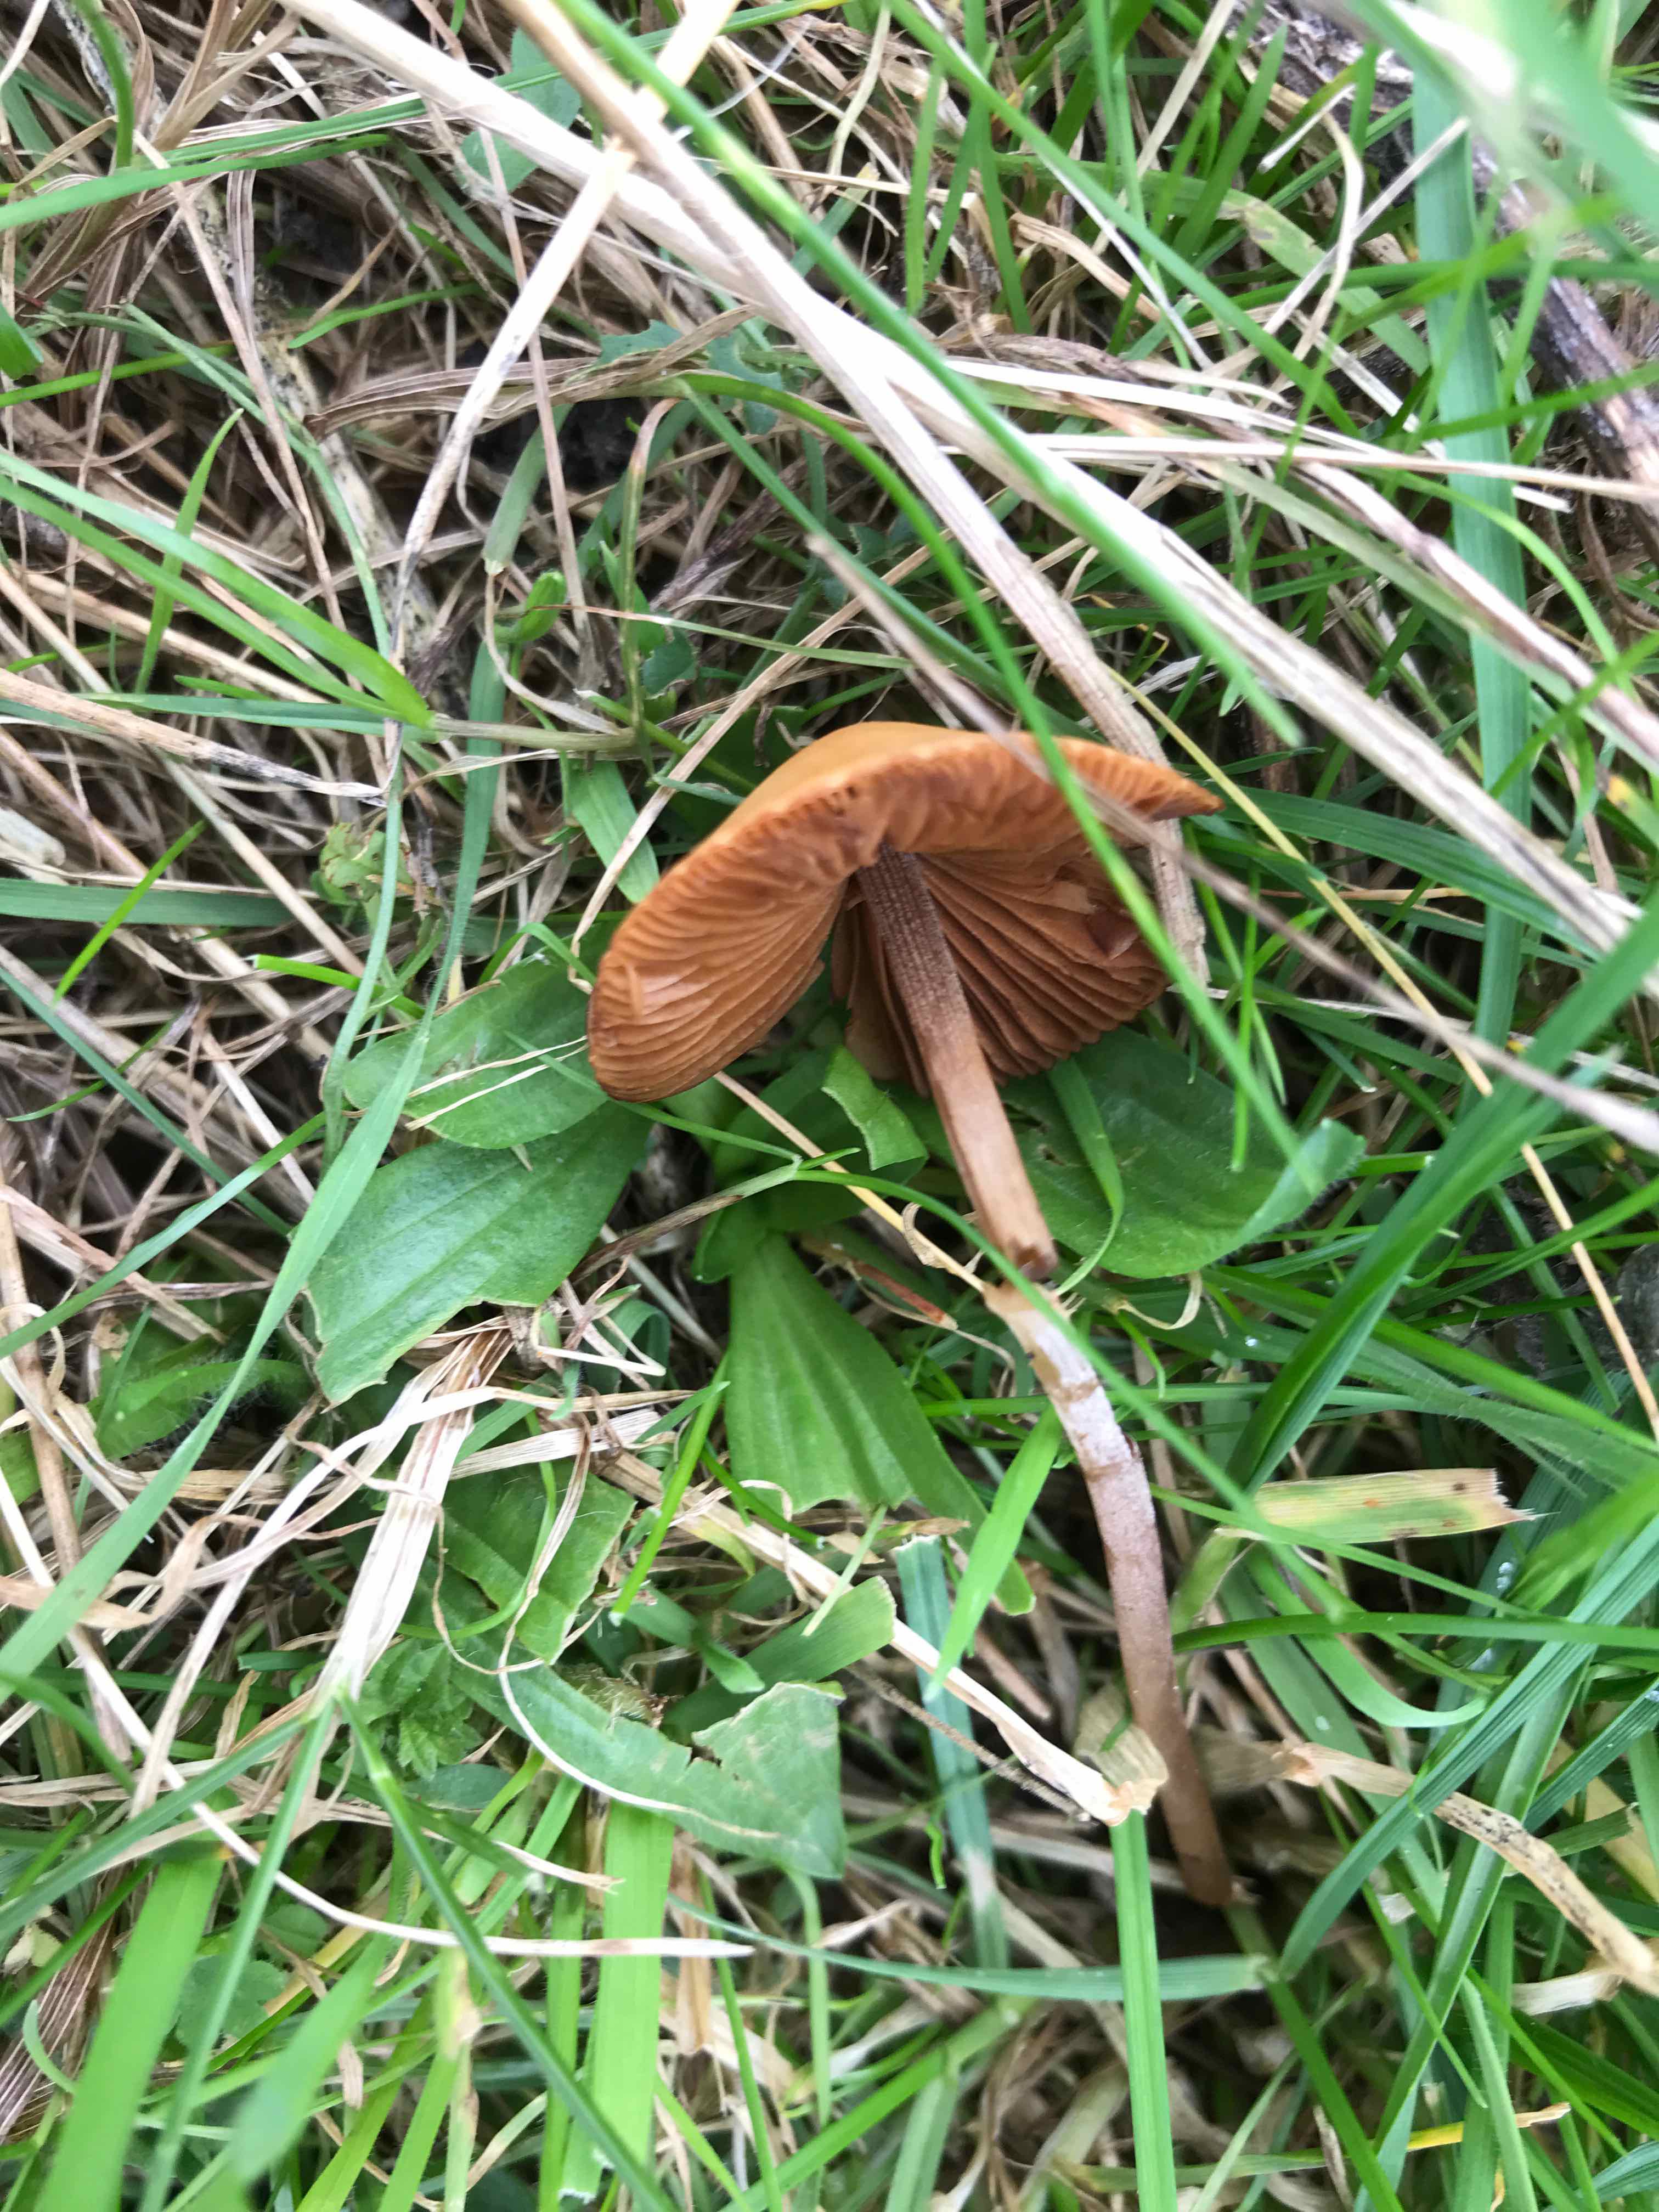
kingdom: Fungi
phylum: Basidiomycota
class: Agaricomycetes
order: Agaricales
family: Bolbitiaceae
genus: Conocybe
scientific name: Conocybe
